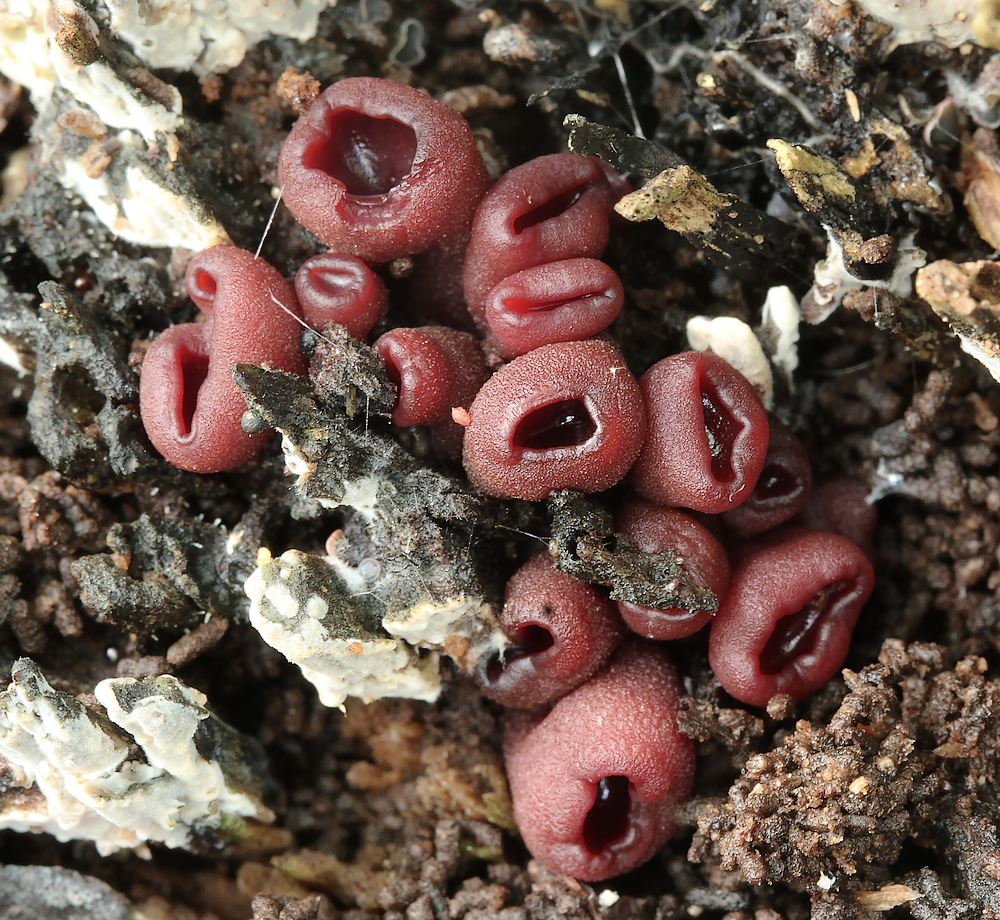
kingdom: Fungi
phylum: Ascomycota
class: Leotiomycetes
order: Helotiales
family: Gelatinodiscaceae
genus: Ascocoryne
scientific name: Ascocoryne cylichnium
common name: stor sejskive
